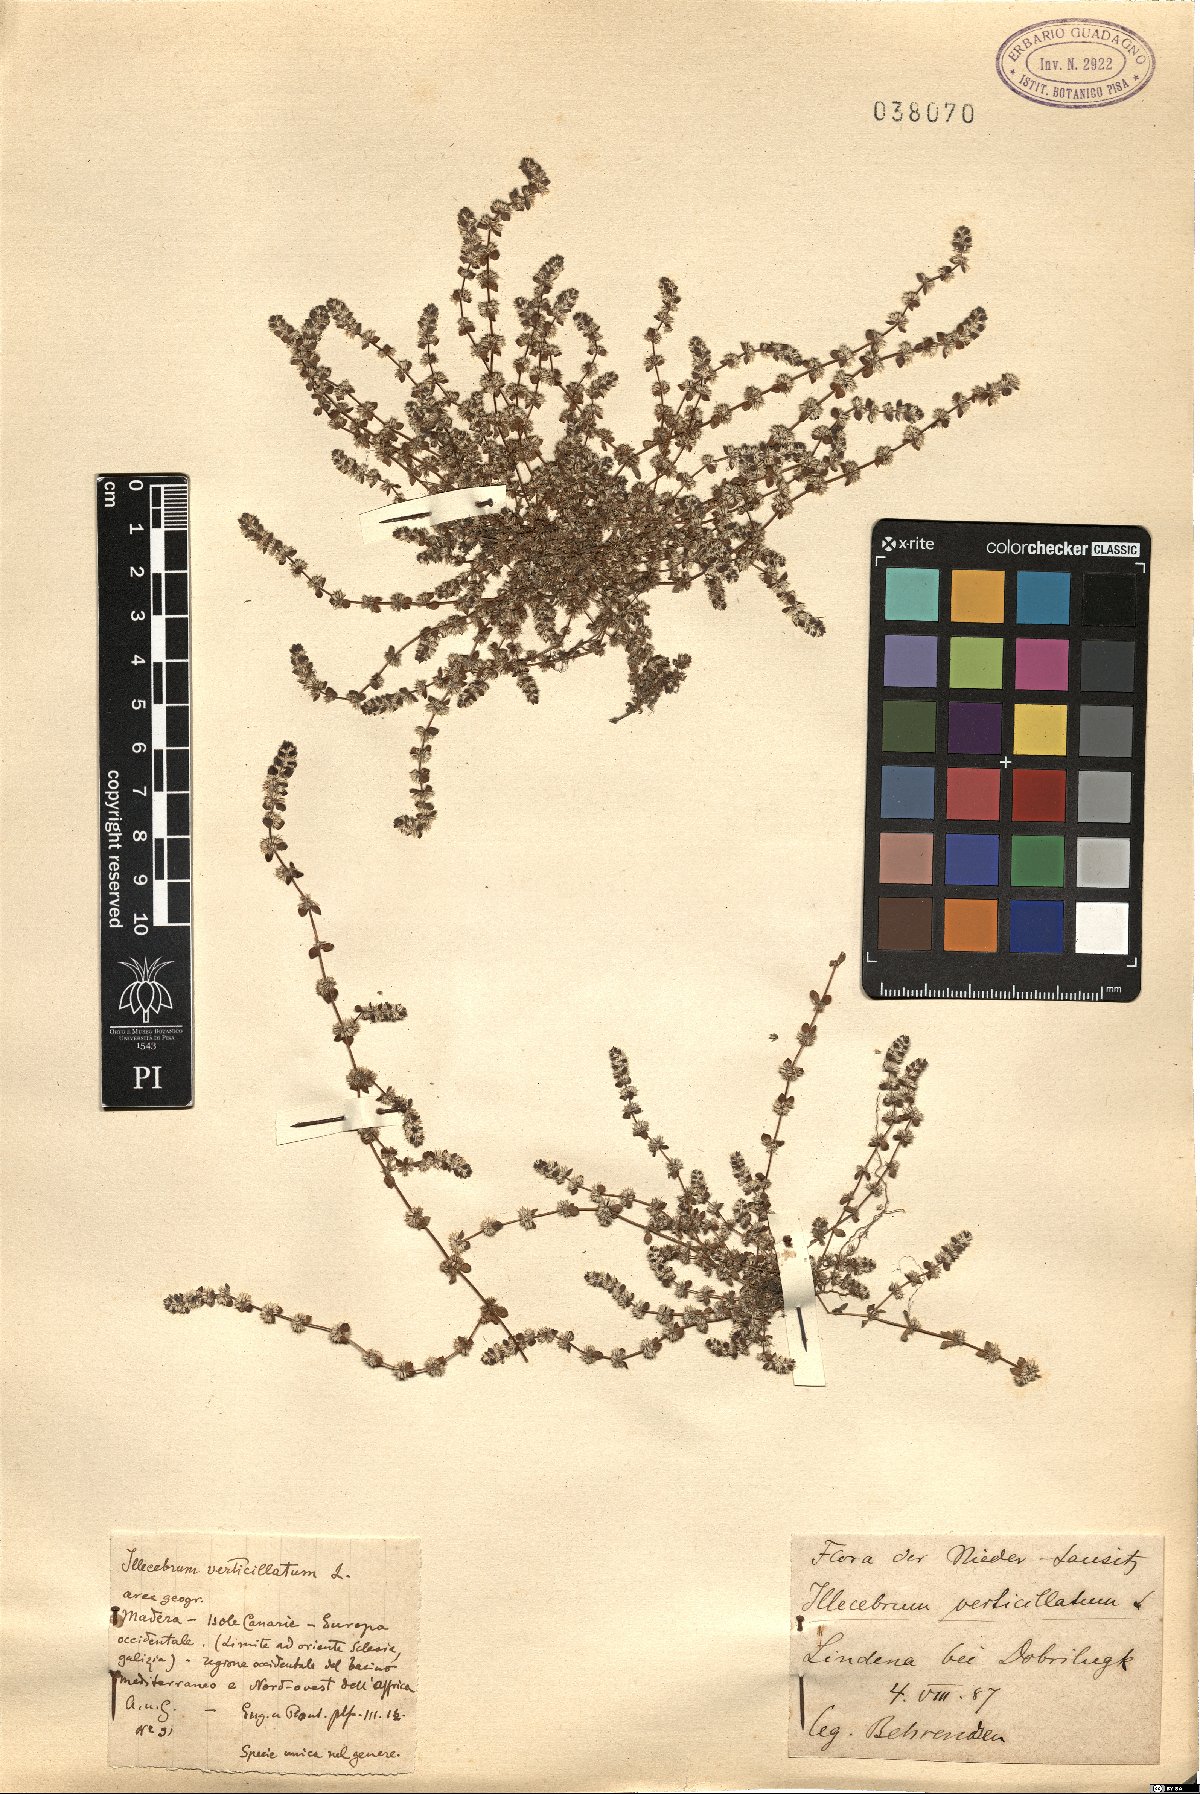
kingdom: Plantae
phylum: Tracheophyta
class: Magnoliopsida
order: Caryophyllales
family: Caryophyllaceae
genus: Illecebrum
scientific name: Illecebrum verticillatum
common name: Coral necklace
